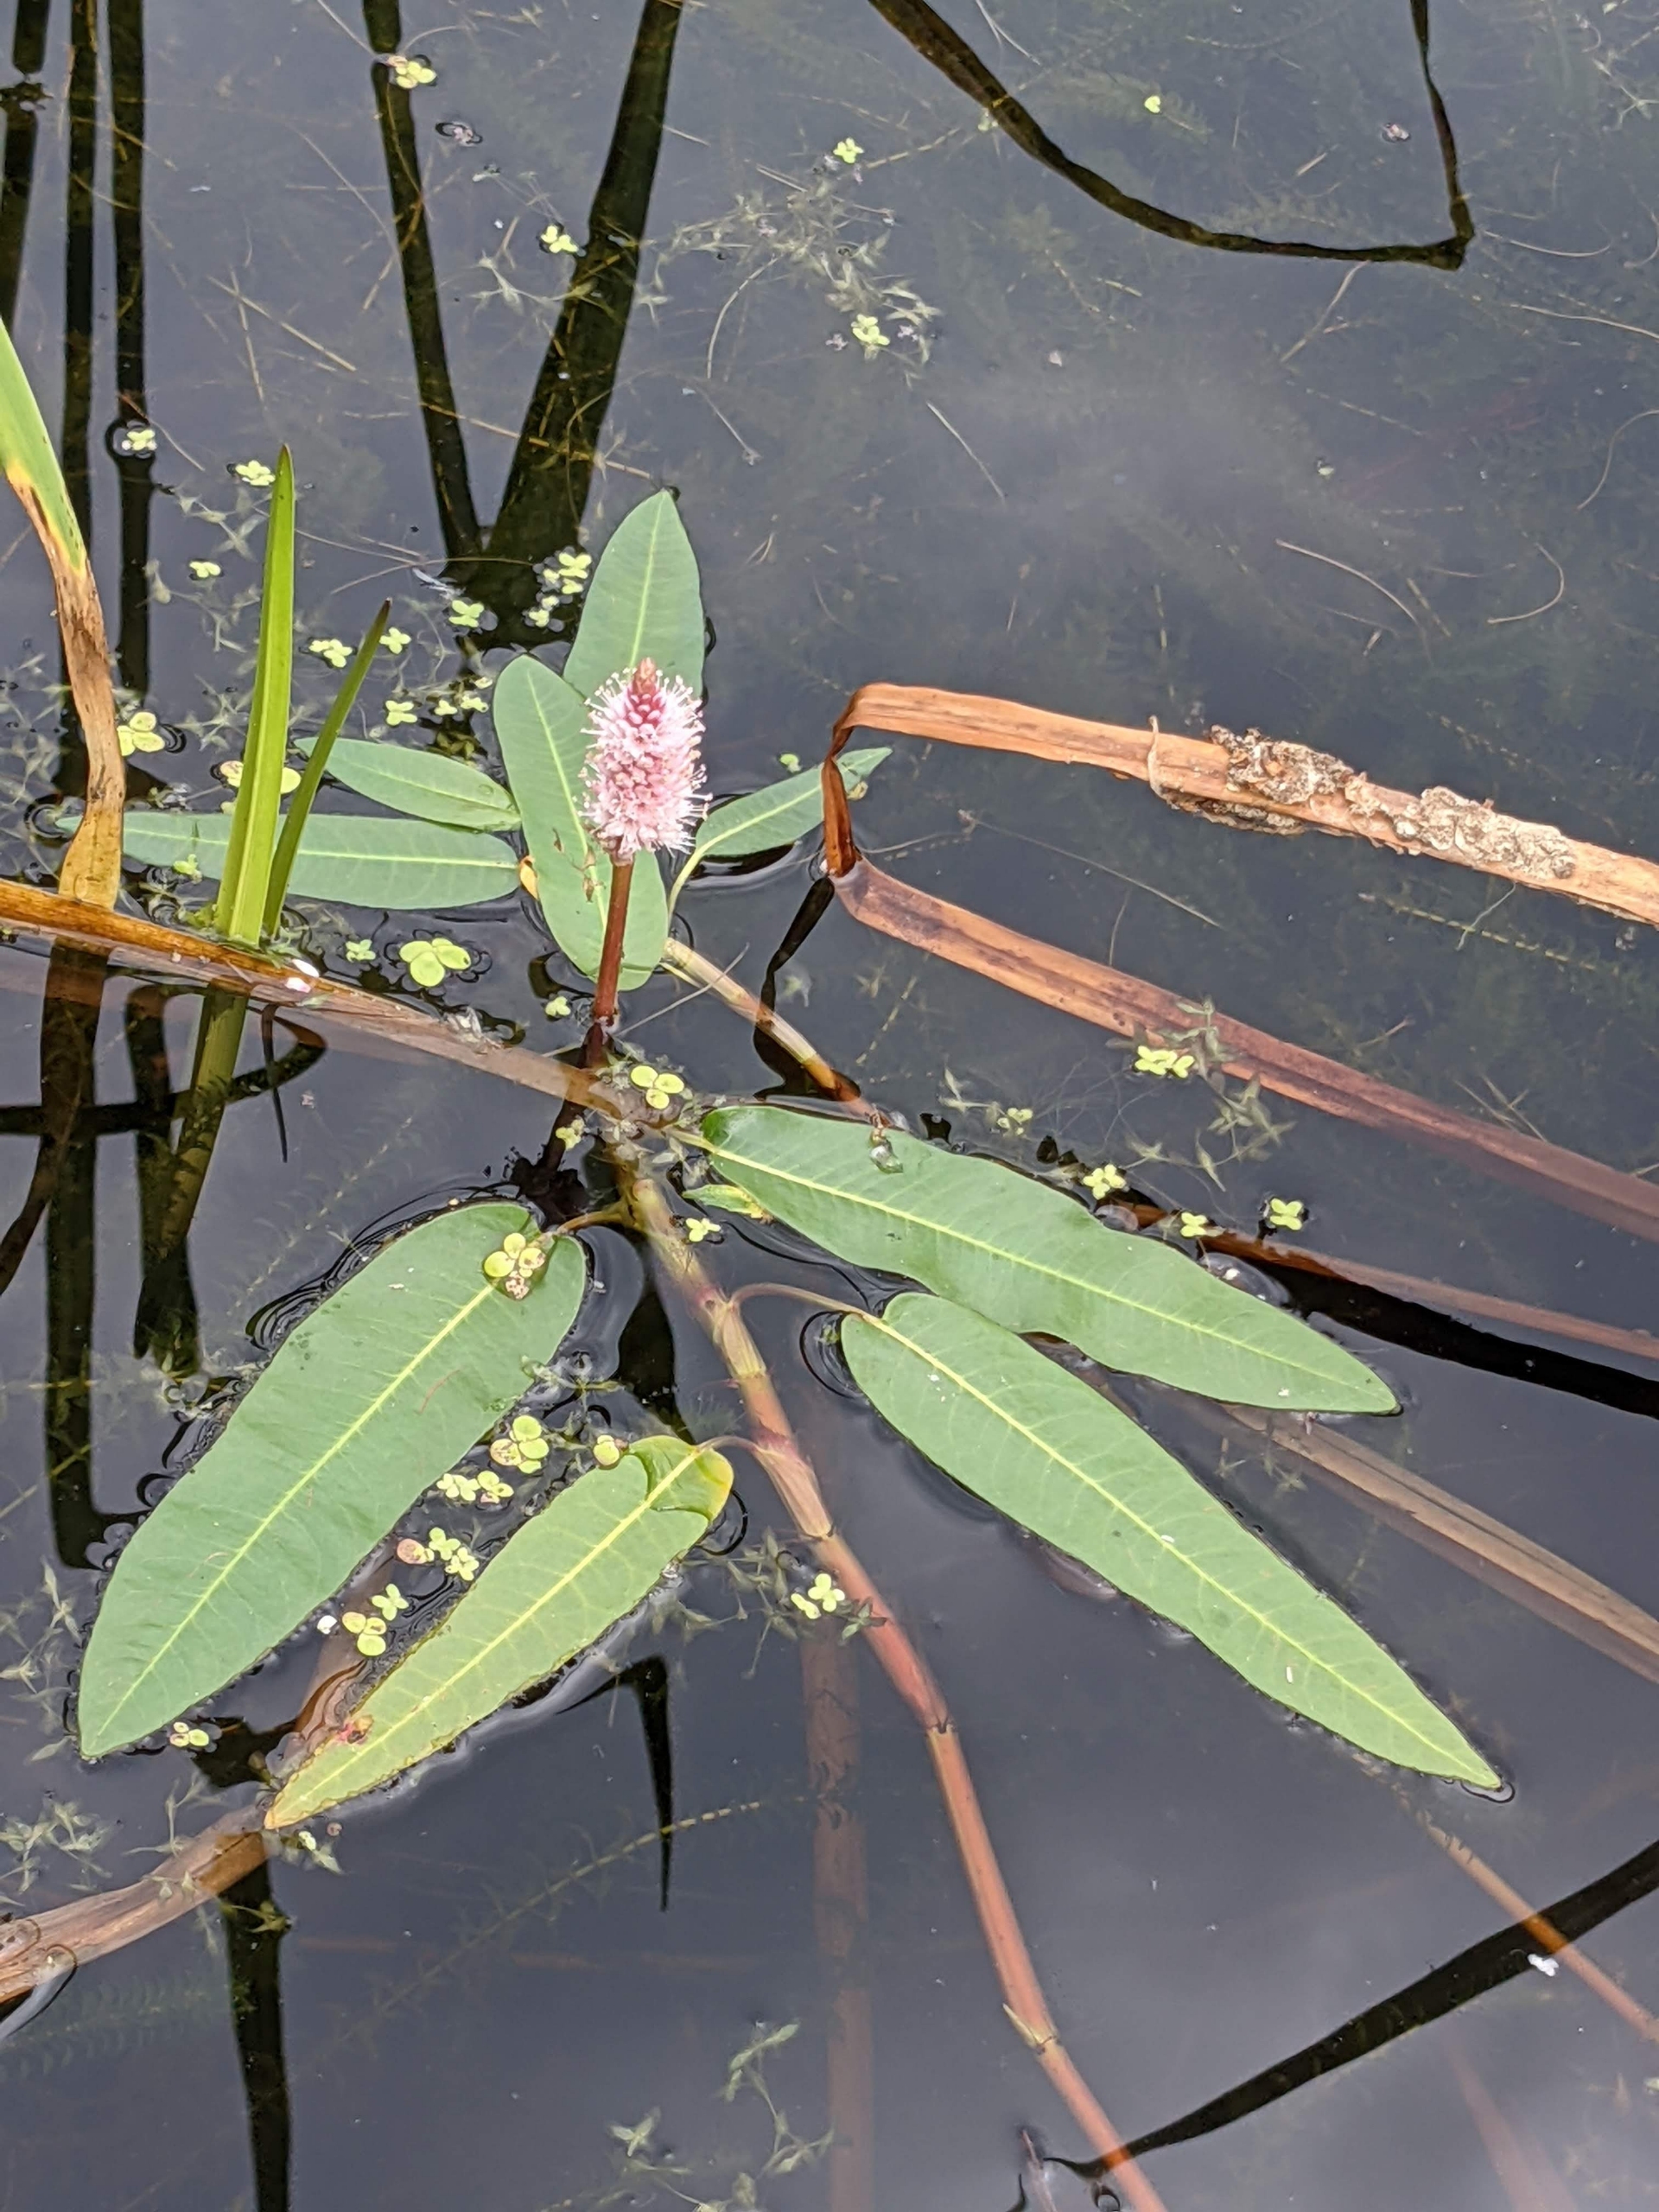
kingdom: Plantae
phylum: Tracheophyta
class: Magnoliopsida
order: Caryophyllales
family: Polygonaceae
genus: Persicaria
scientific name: Persicaria amphibia
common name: Vand-pileurt
